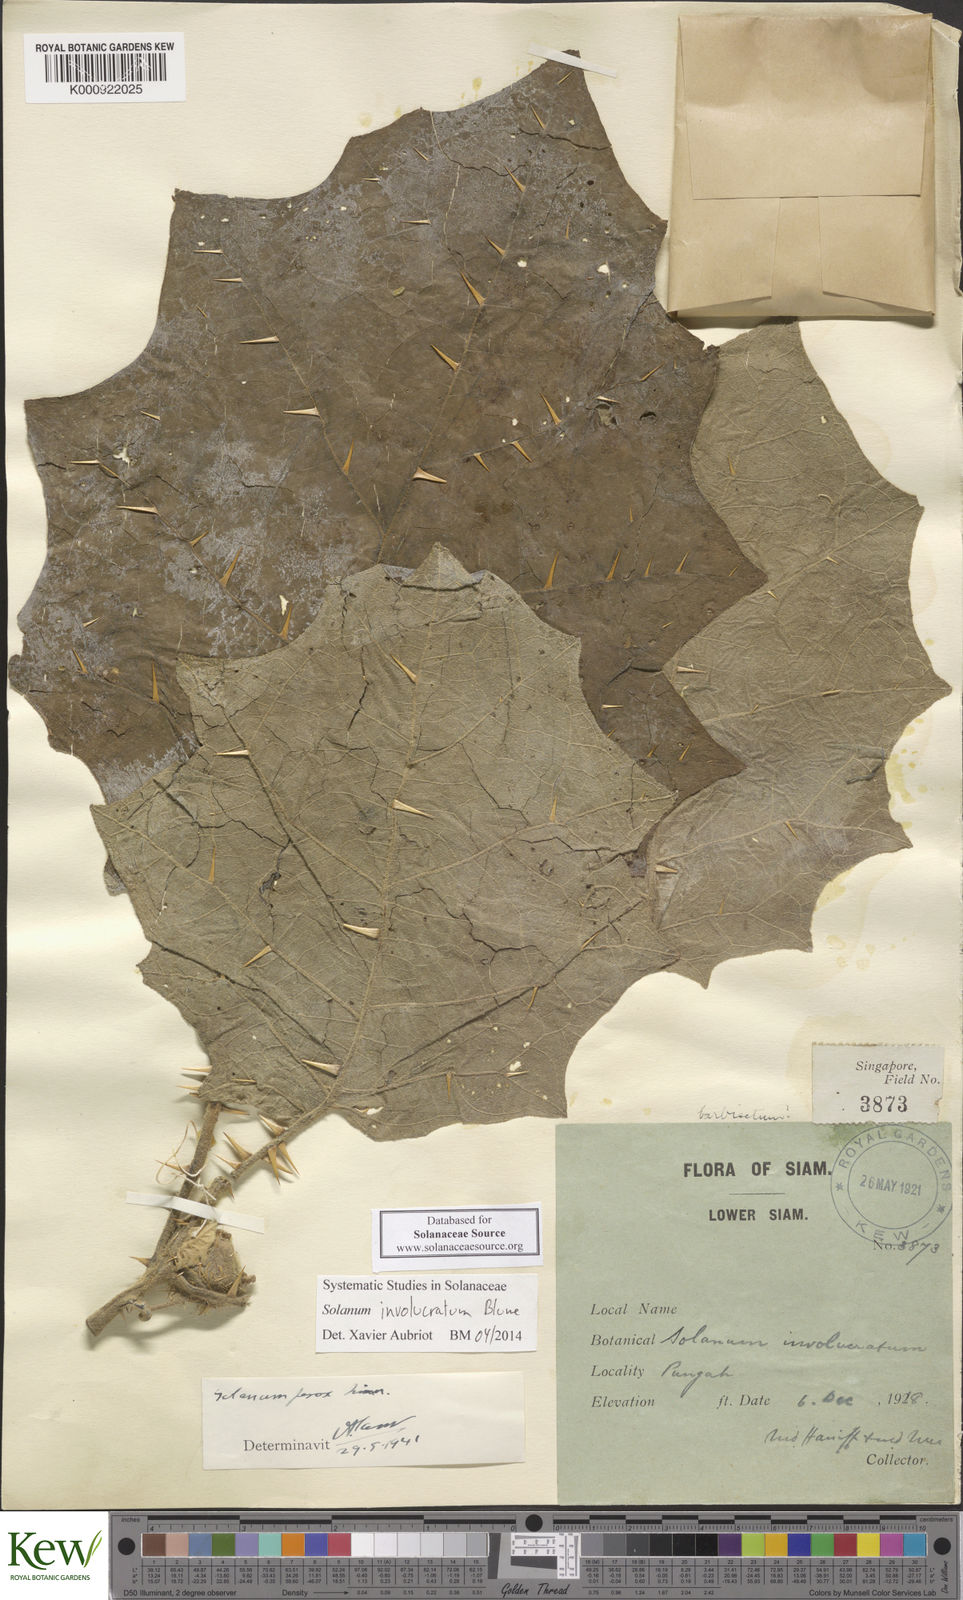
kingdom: Plantae
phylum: Tracheophyta
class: Magnoliopsida
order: Solanales
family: Solanaceae
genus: Solanum
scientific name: Solanum involucratum
